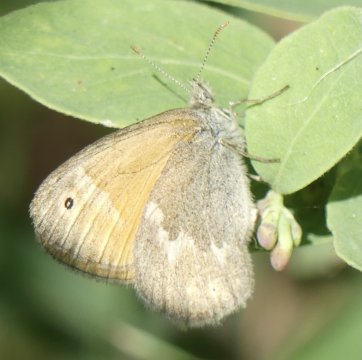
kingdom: Animalia
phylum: Arthropoda
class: Insecta
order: Lepidoptera
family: Nymphalidae
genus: Coenonympha
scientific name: Coenonympha tullia
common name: Large Heath
